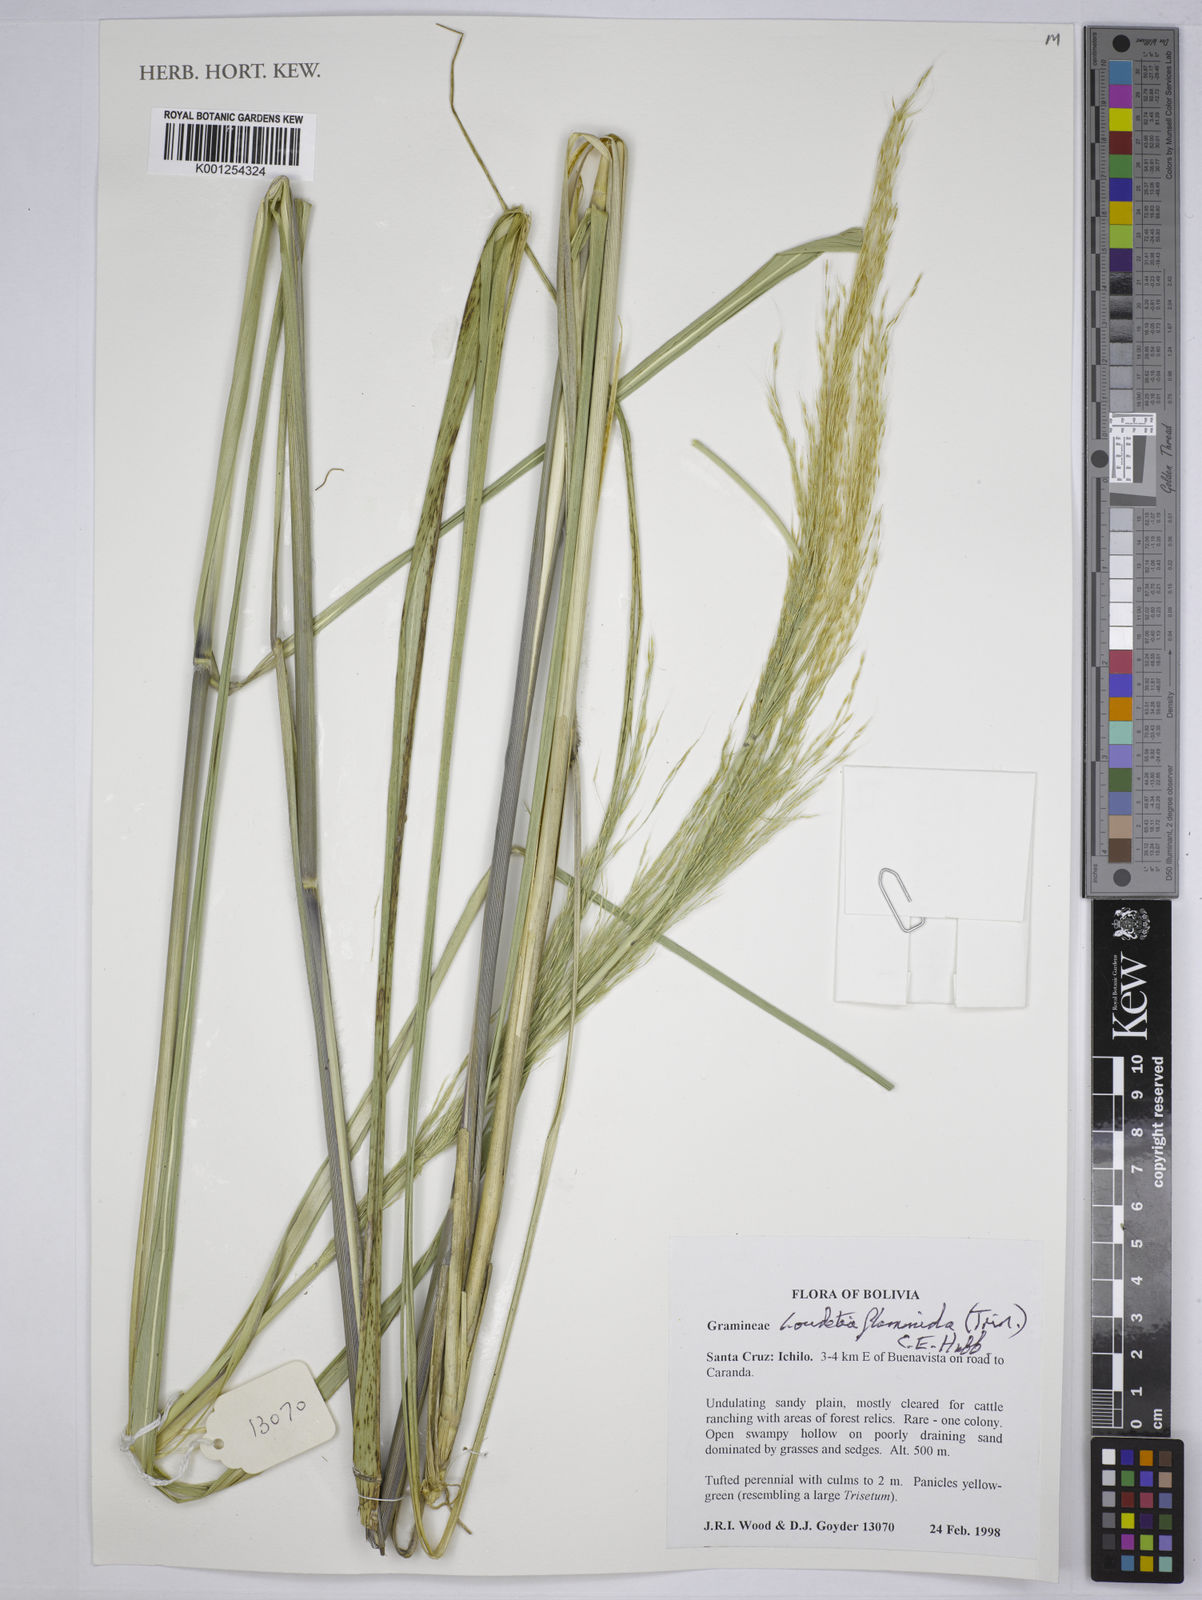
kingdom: Plantae
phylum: Tracheophyta
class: Liliopsida
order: Poales
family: Poaceae
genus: Loudetia
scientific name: Loudetia flammida
